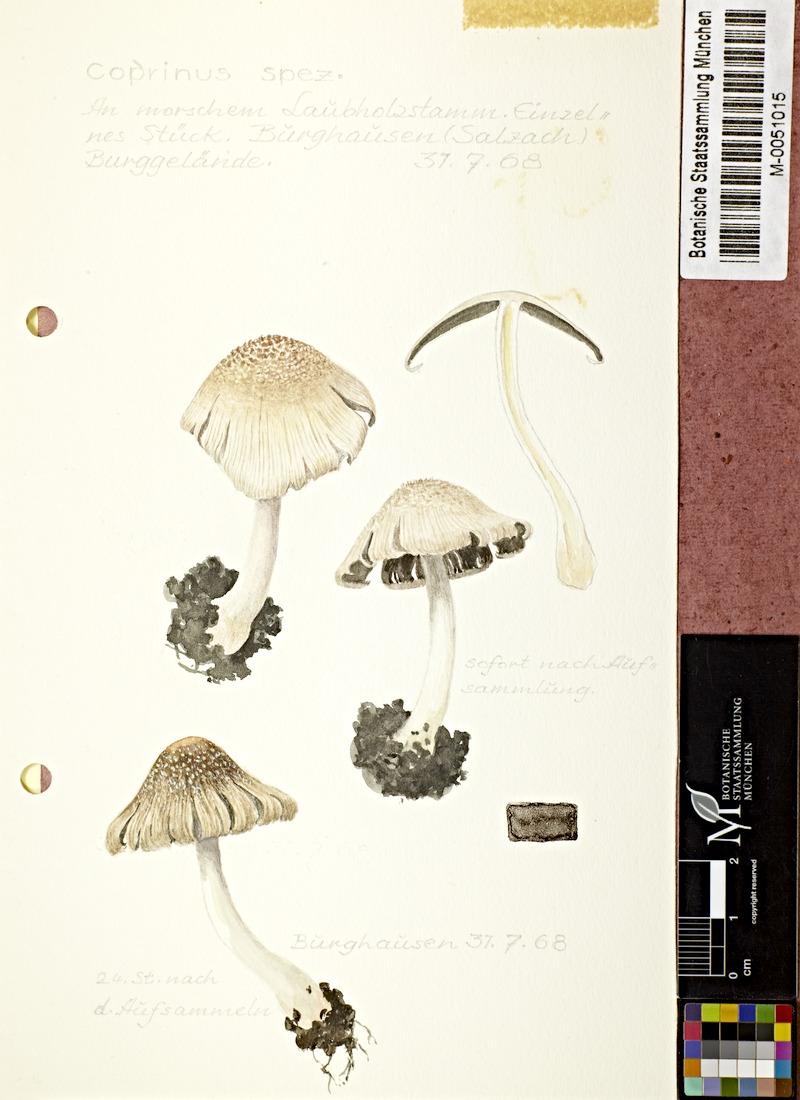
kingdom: Fungi
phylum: Basidiomycota
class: Agaricomycetes
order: Agaricales
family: Agaricaceae
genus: Coprinus
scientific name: Coprinus
